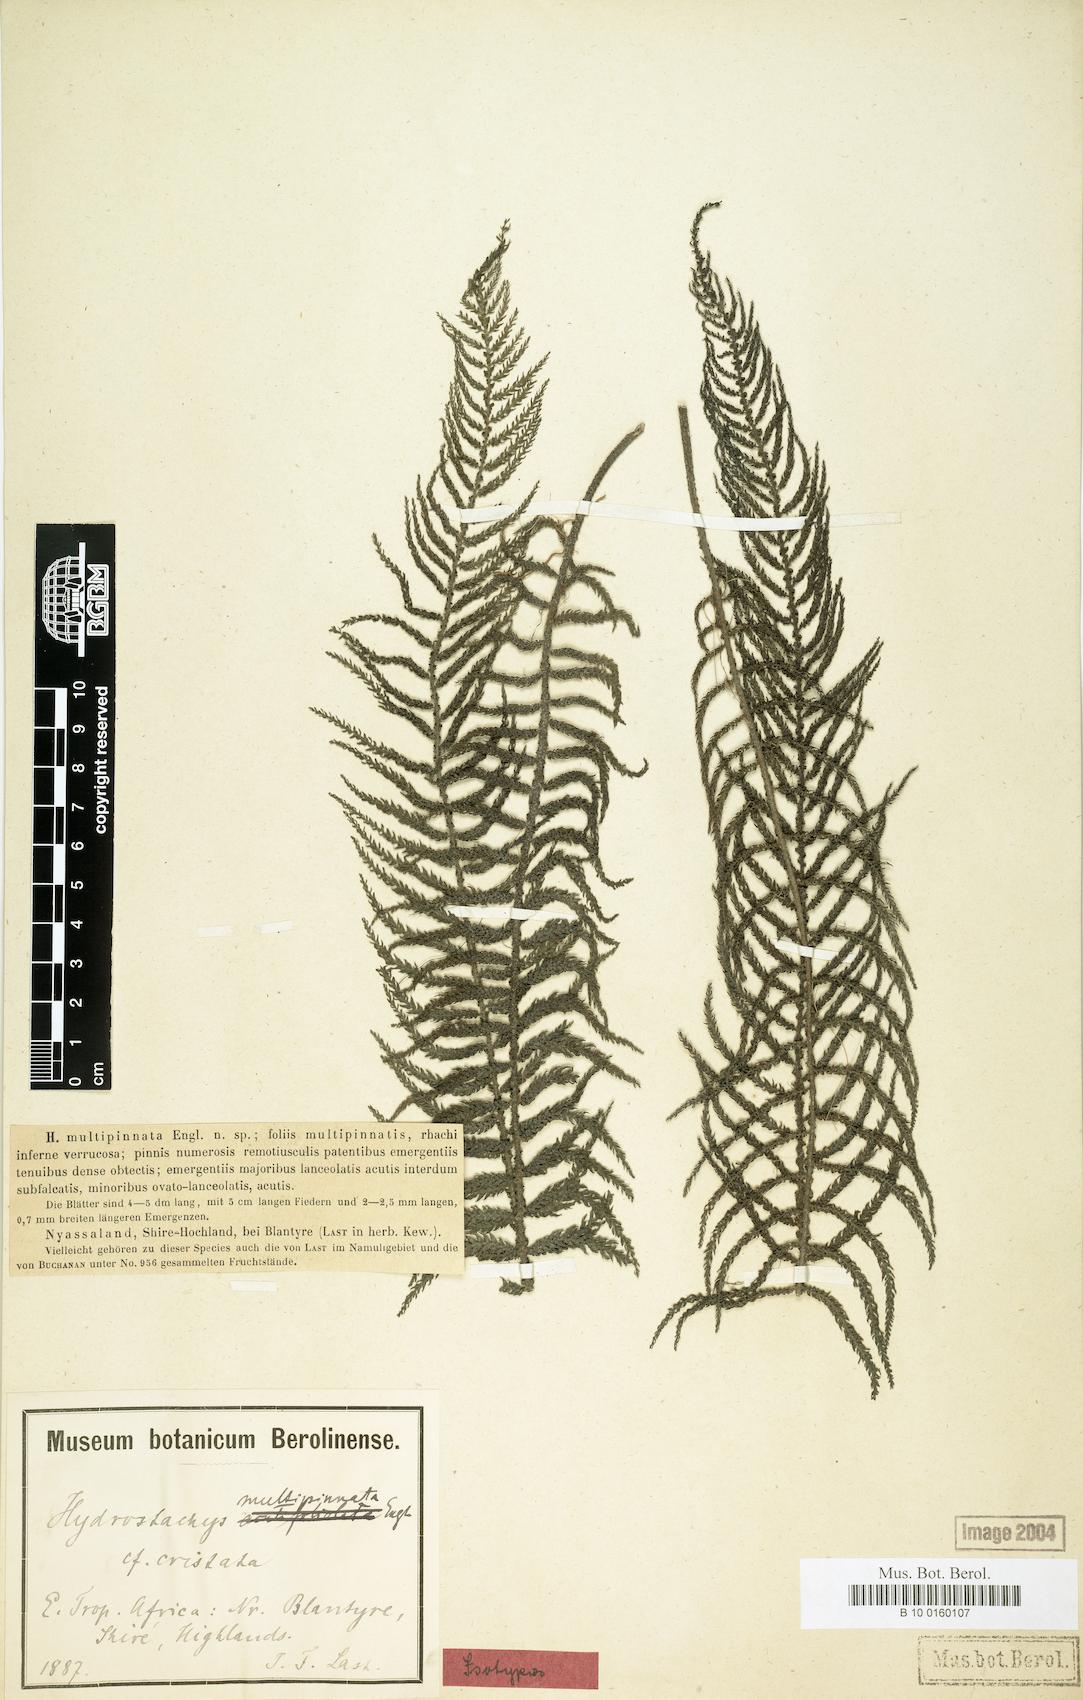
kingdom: Plantae
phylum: Tracheophyta
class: Magnoliopsida
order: Cornales
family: Hydrostachyaceae
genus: Hydrostachys
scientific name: Hydrostachys polymorpha
